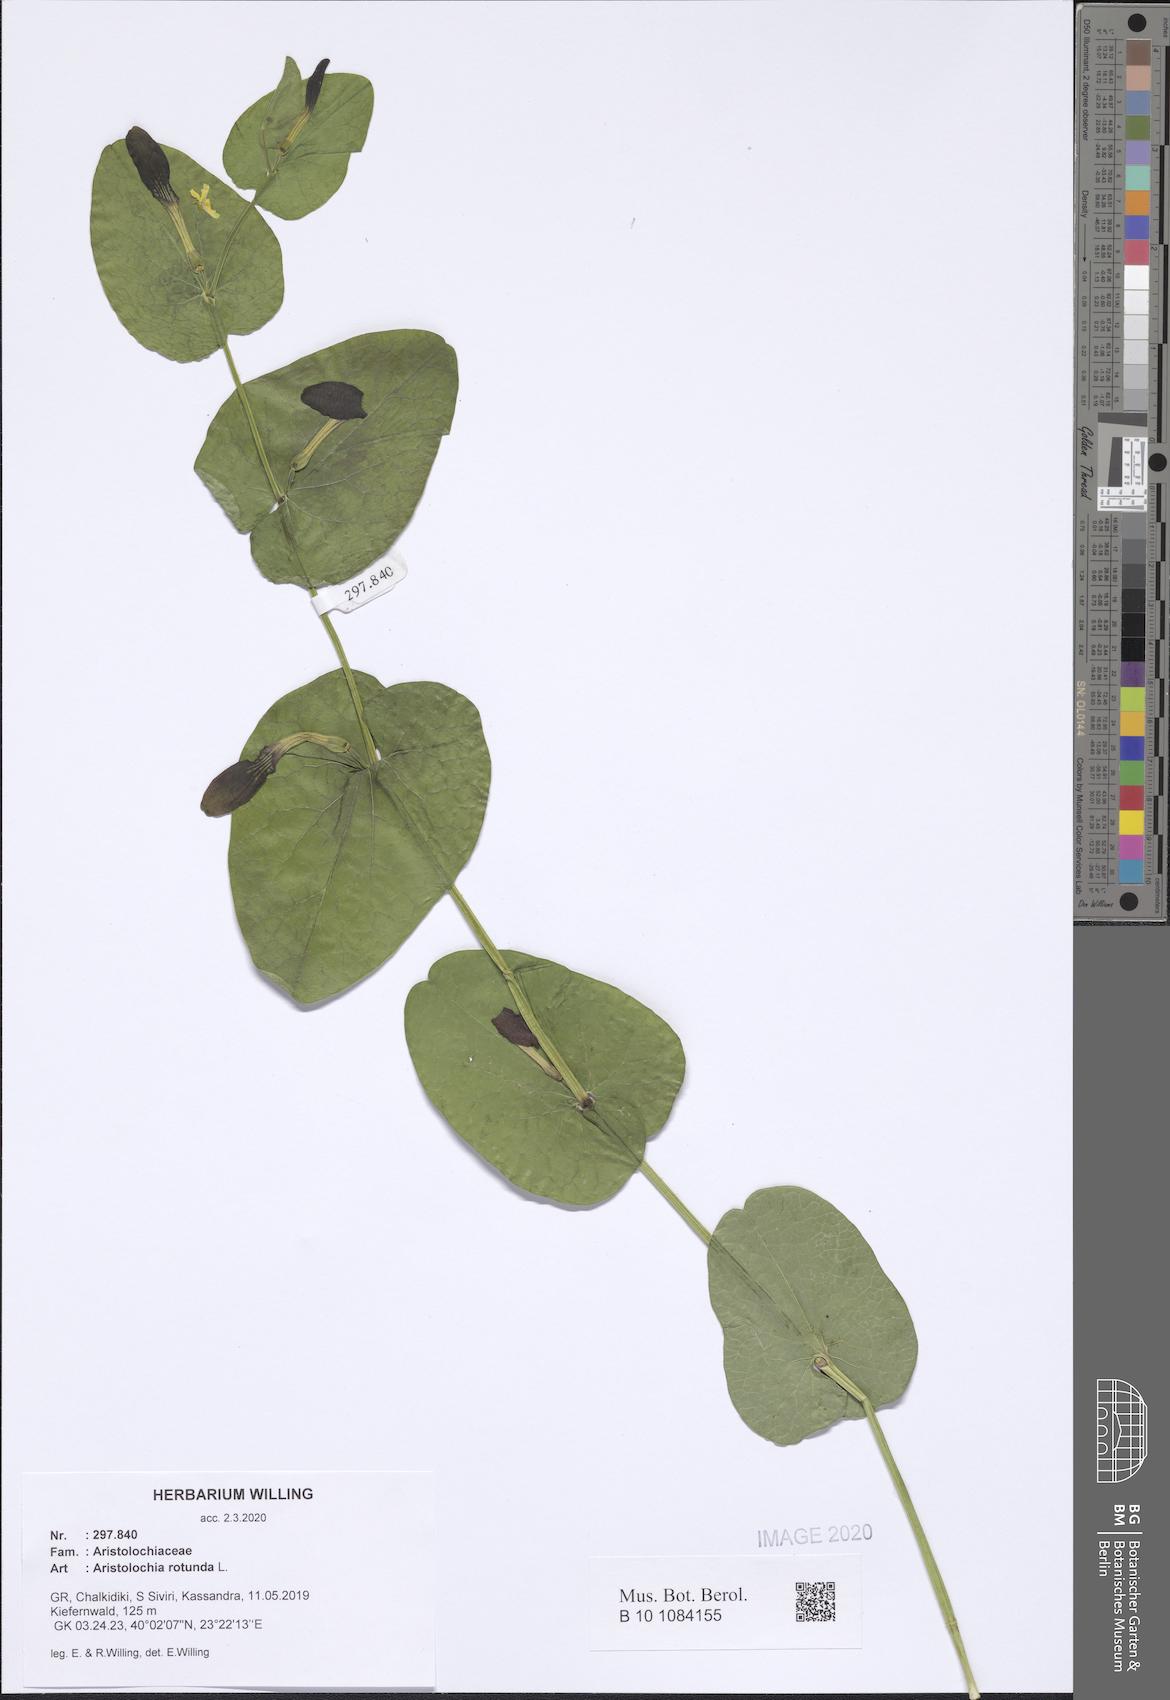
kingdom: Plantae
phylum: Tracheophyta
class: Magnoliopsida
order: Piperales
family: Aristolochiaceae
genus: Aristolochia
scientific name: Aristolochia rotunda
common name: Smearwort
